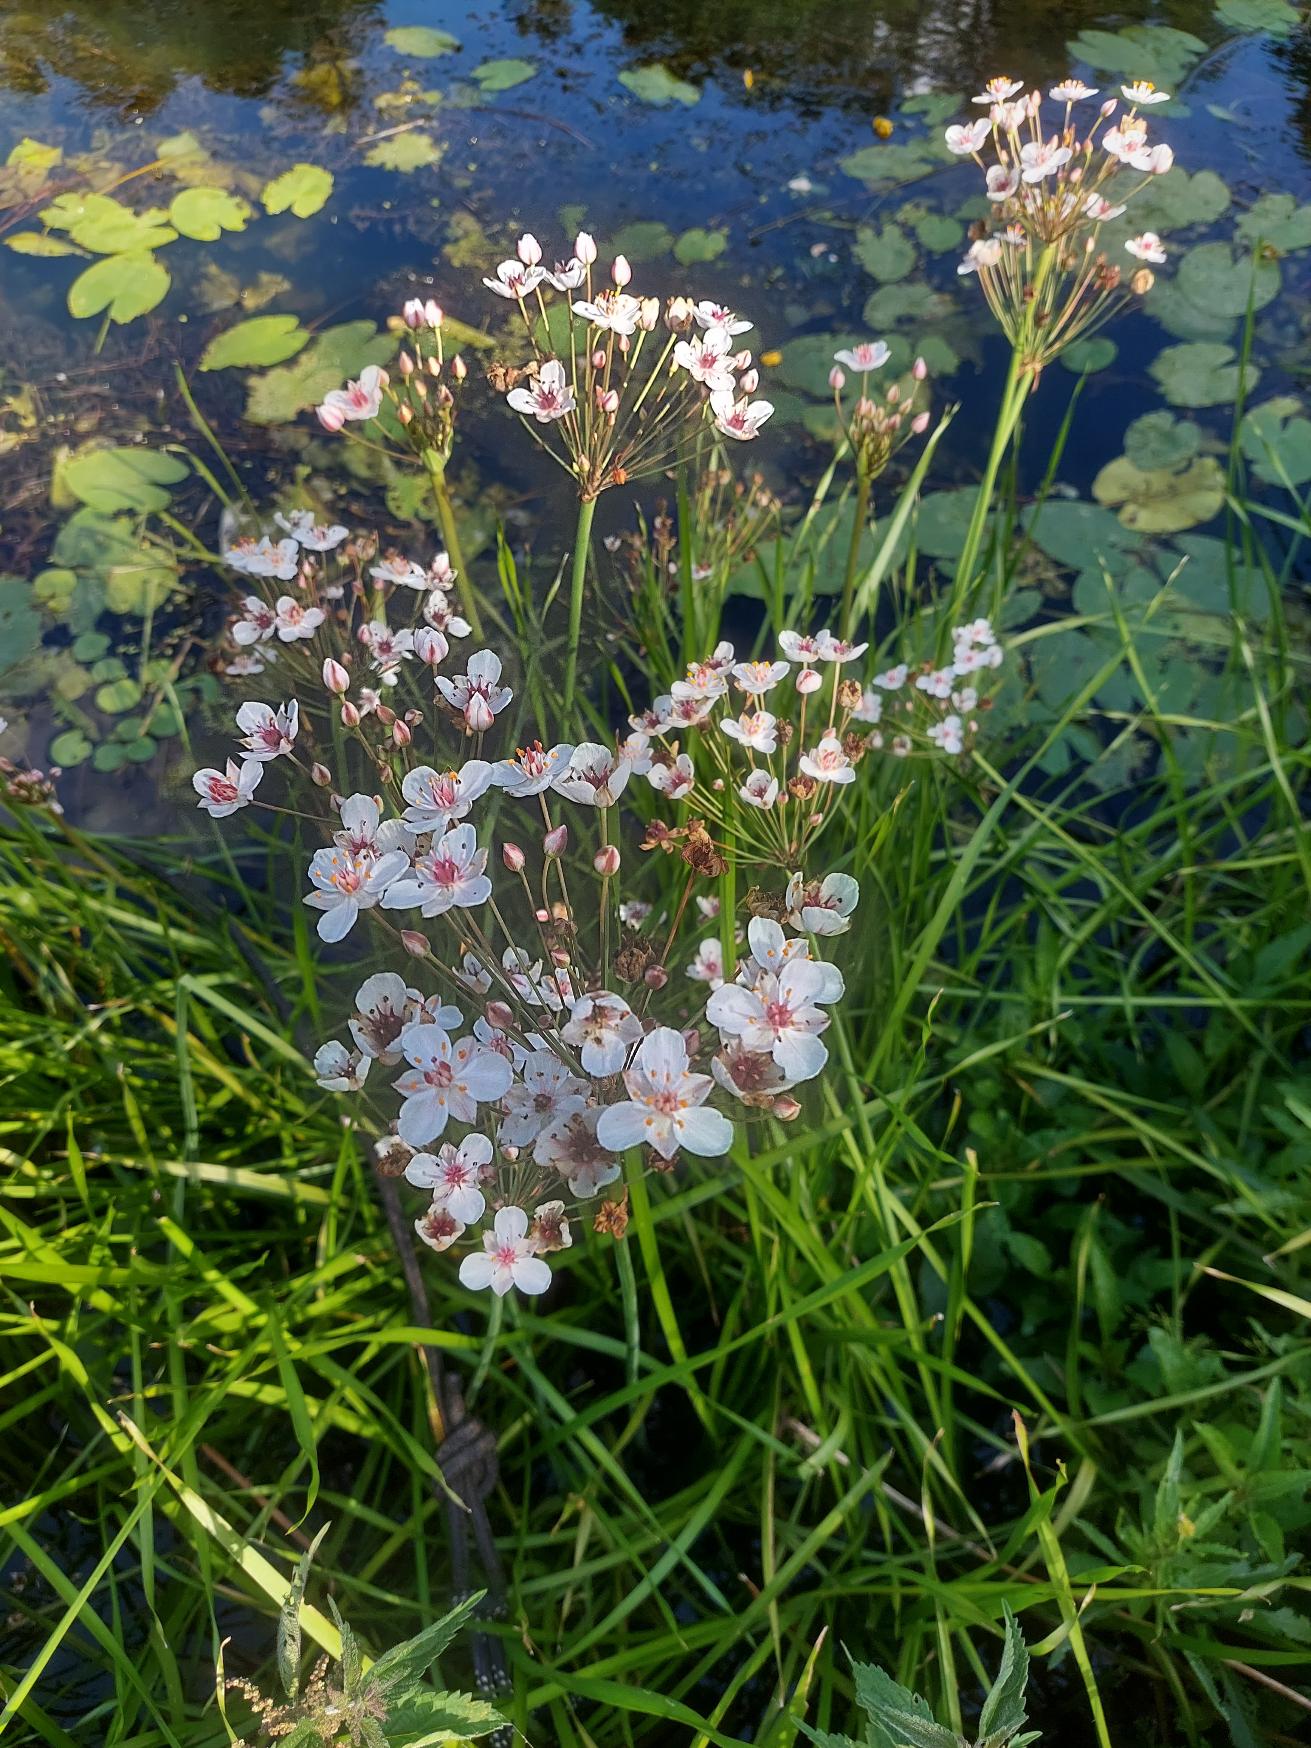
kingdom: Plantae
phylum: Tracheophyta
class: Liliopsida
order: Alismatales
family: Butomaceae
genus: Butomus
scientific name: Butomus umbellatus
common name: Brudelys
